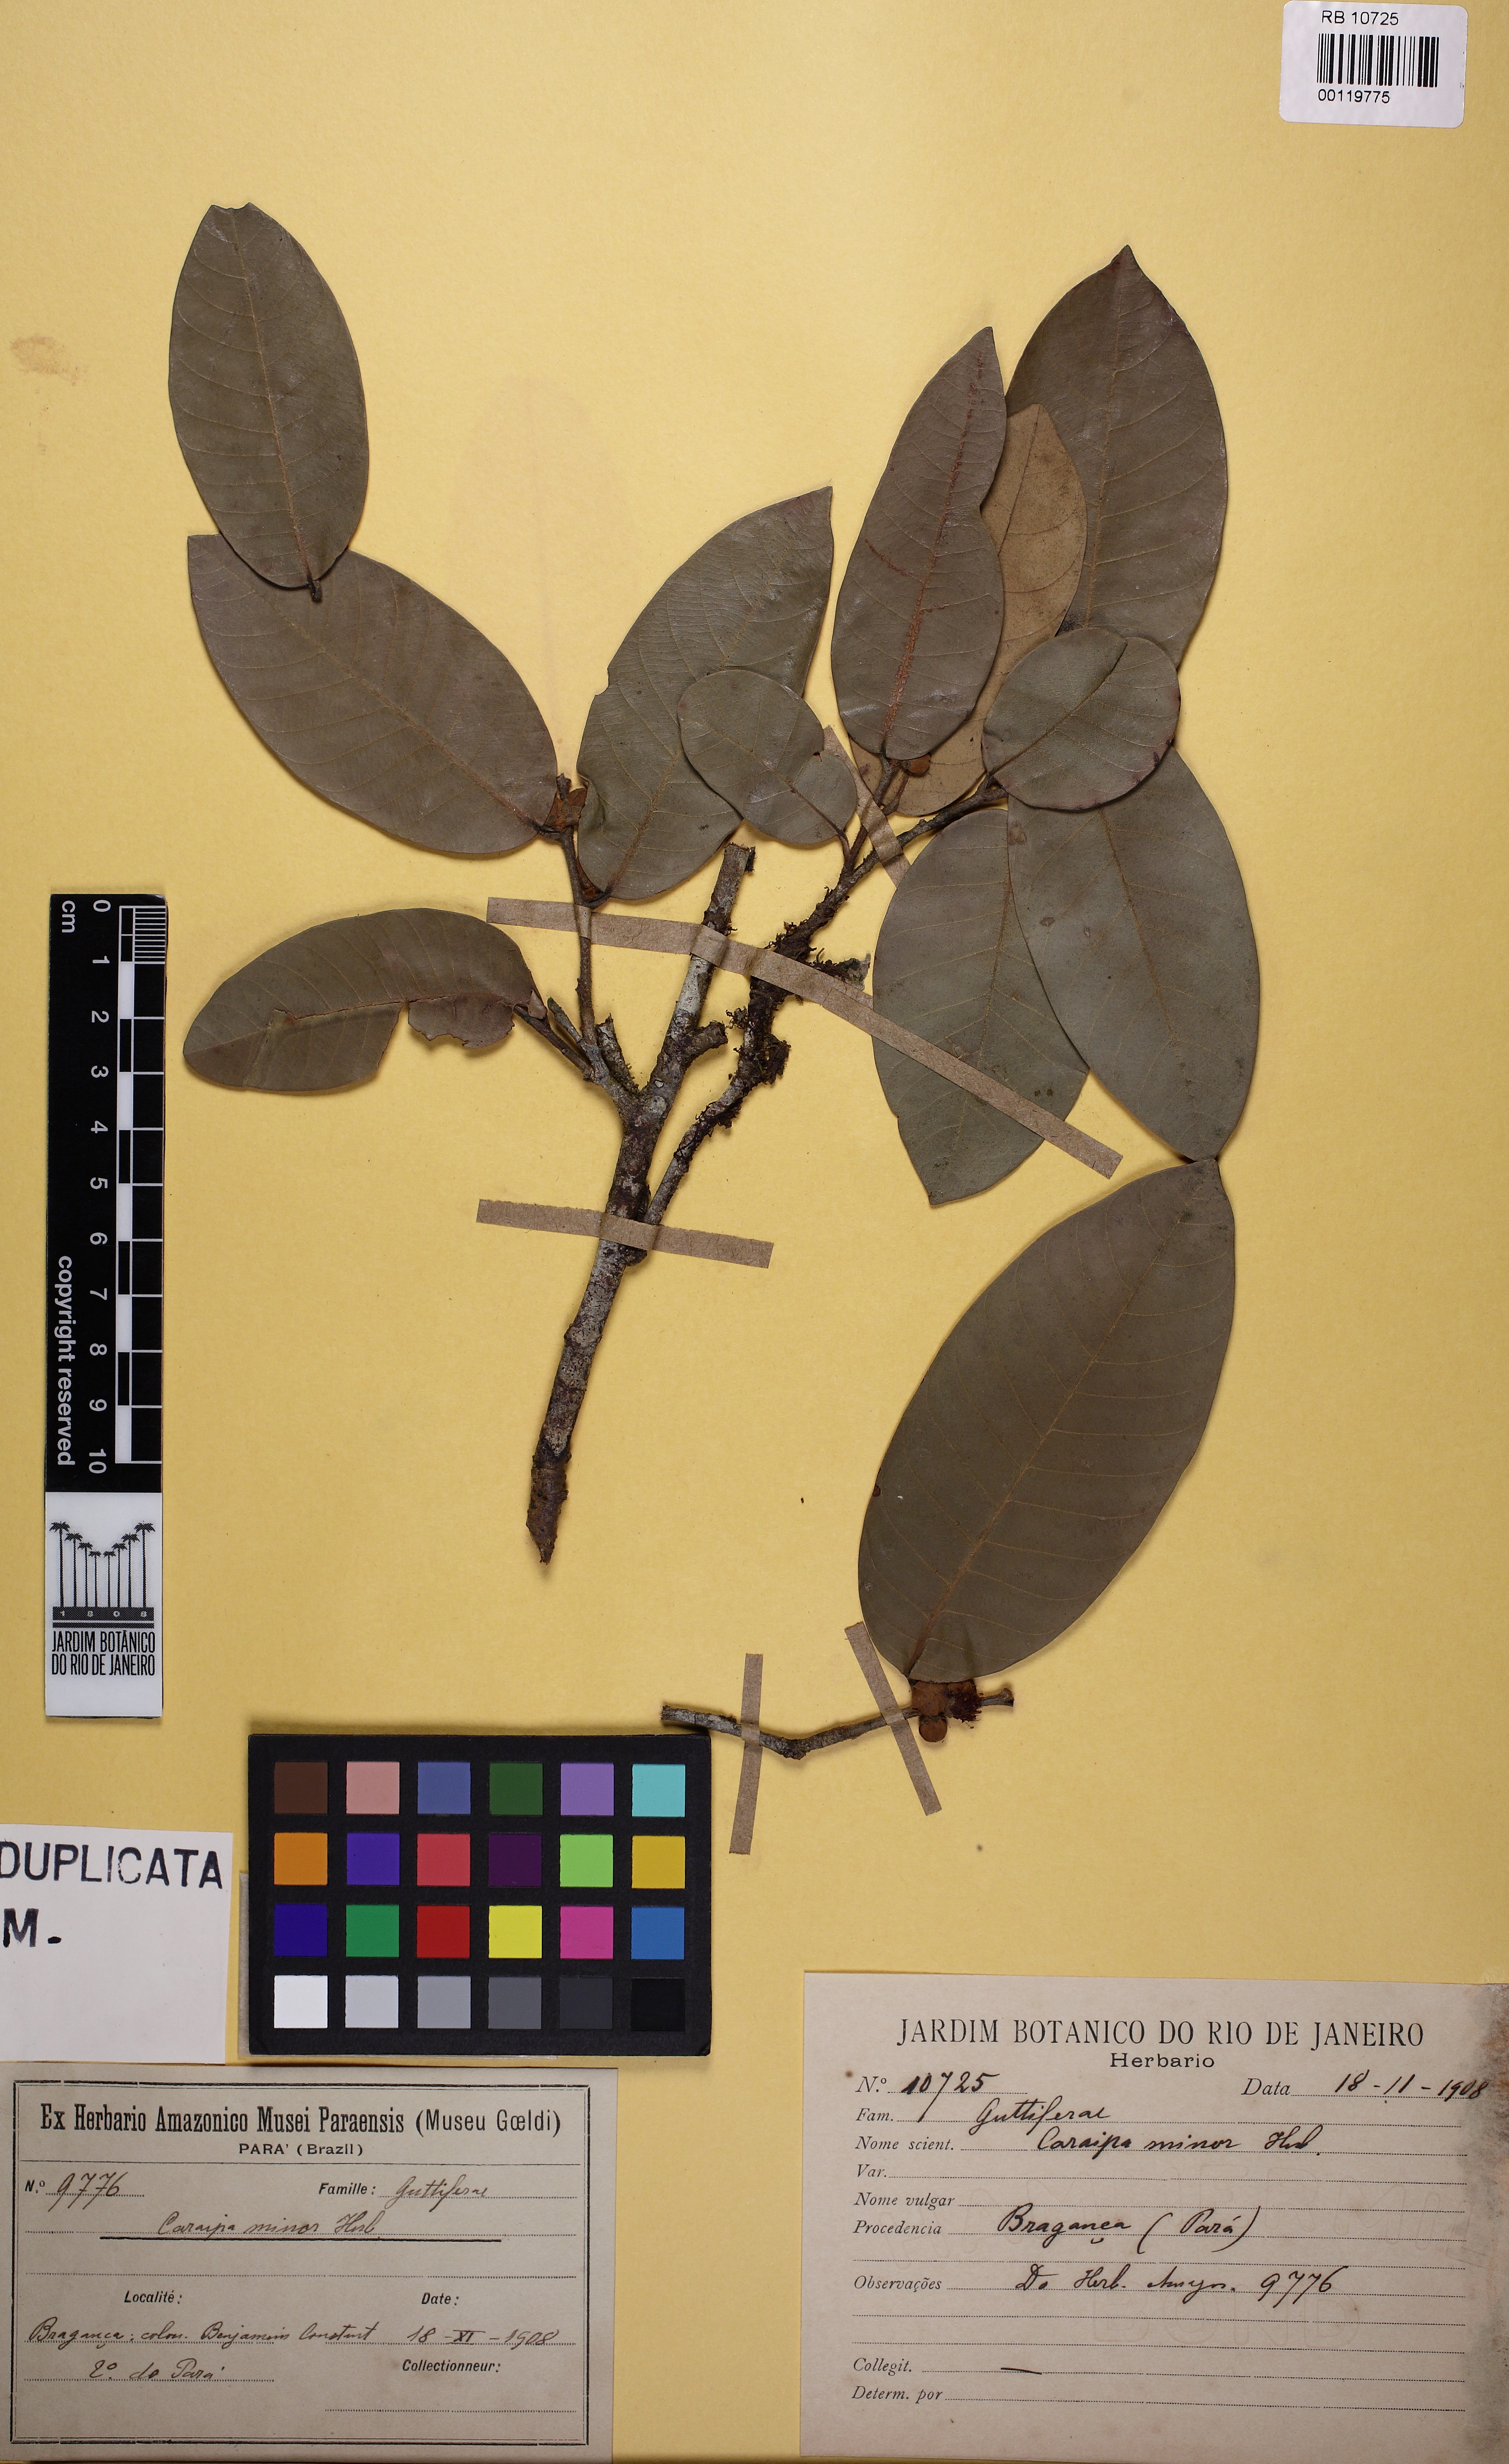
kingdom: Plantae
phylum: Tracheophyta
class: Magnoliopsida
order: Malpighiales
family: Calophyllaceae
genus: Caraipa
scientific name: Caraipa minor
